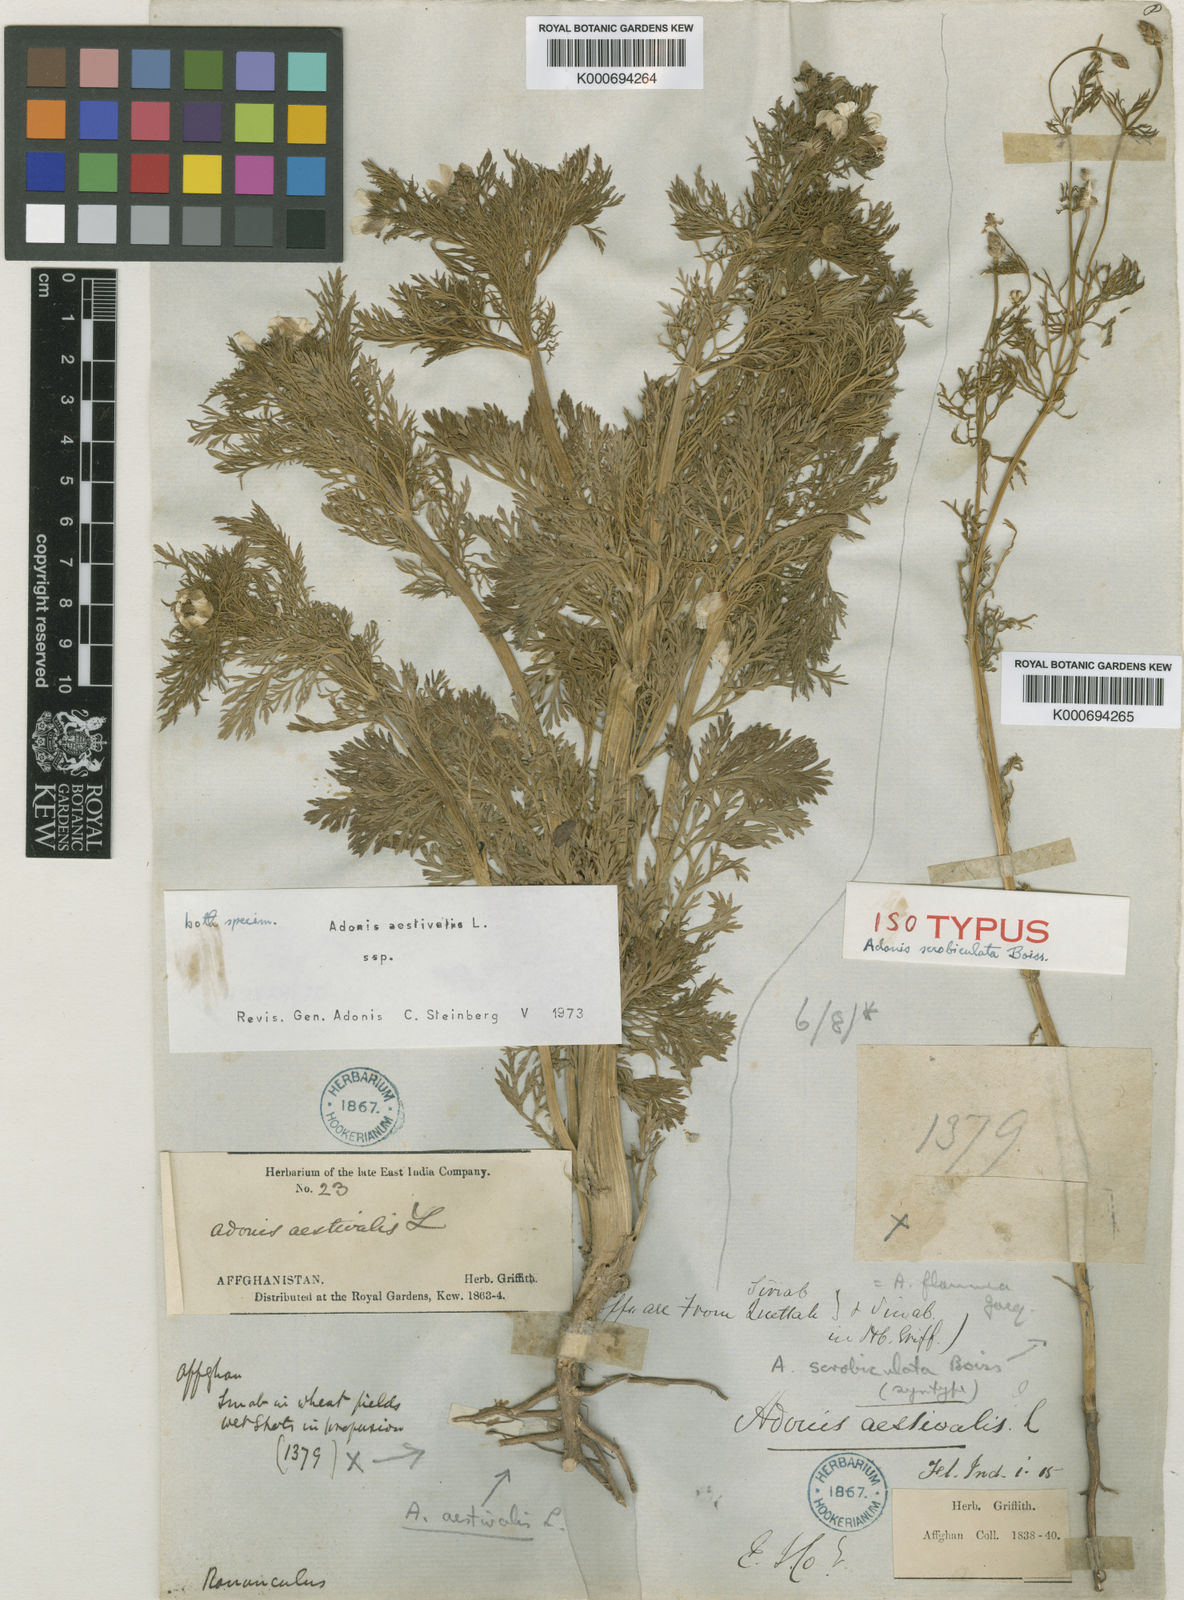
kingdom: Plantae
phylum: Tracheophyta
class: Magnoliopsida
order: Ranunculales
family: Ranunculaceae
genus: Adonis
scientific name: Adonis aestivalis
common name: Summer pheasant's-eye
